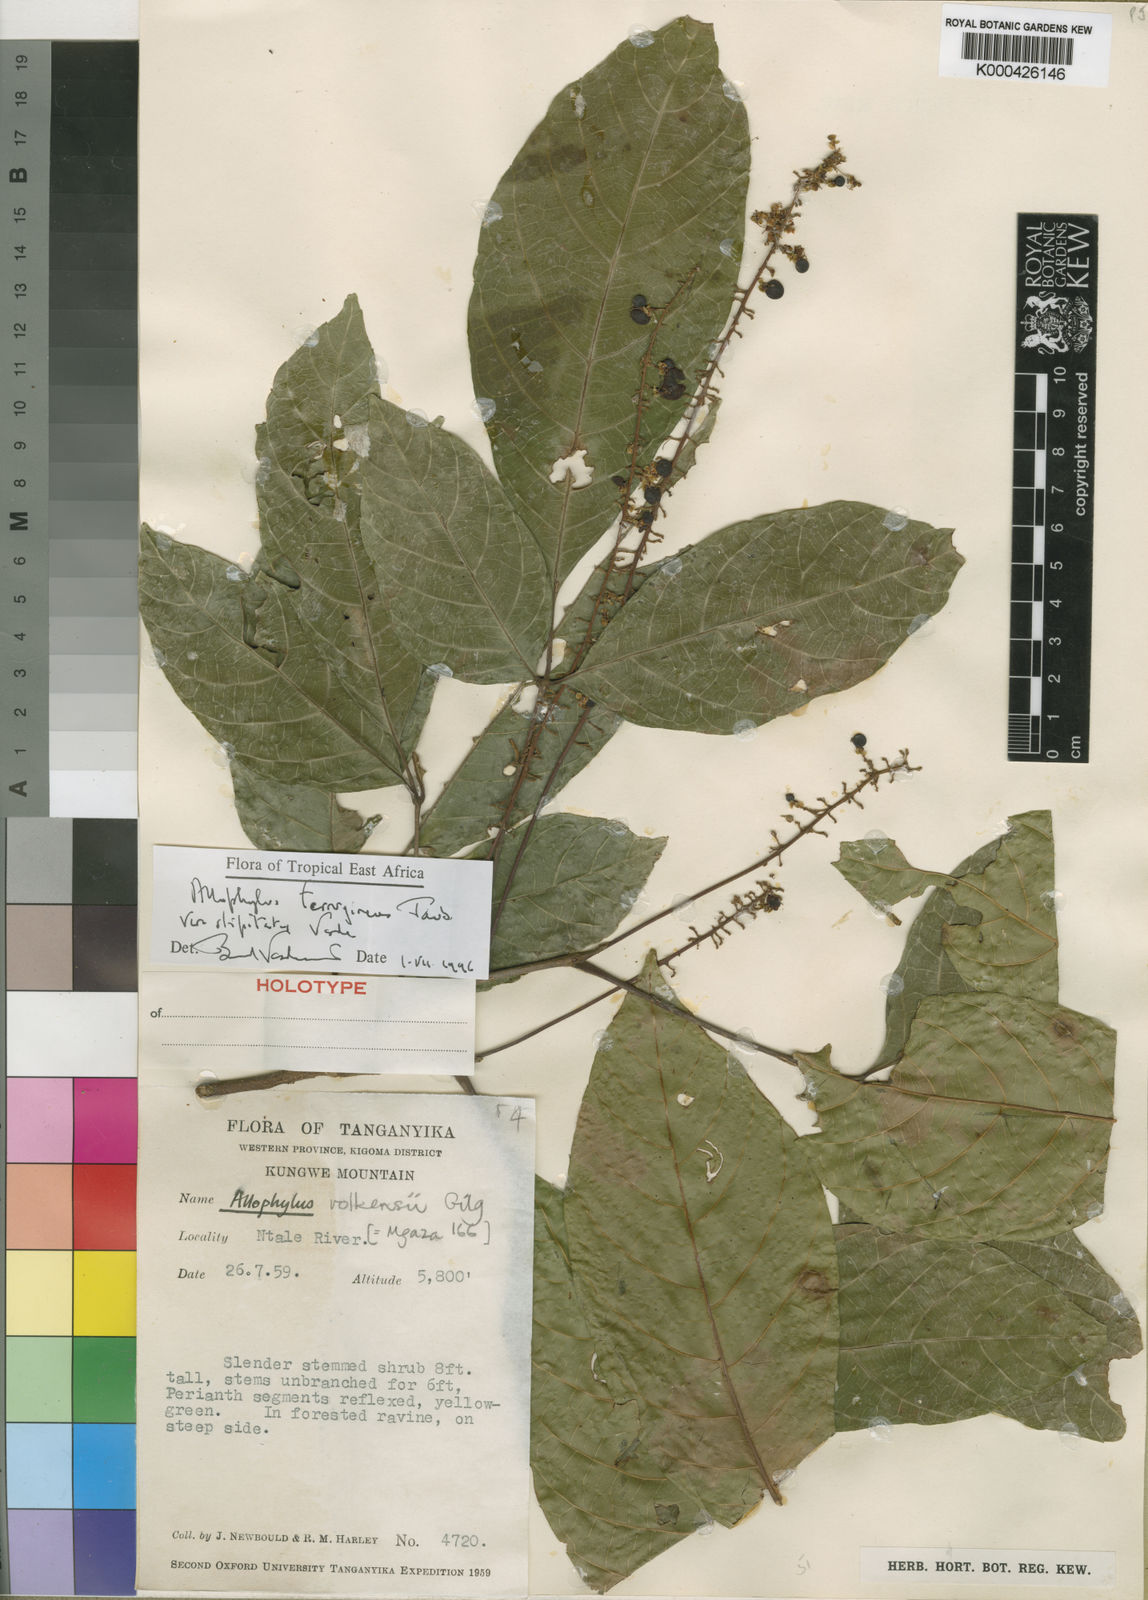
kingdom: Plantae
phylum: Tracheophyta
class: Magnoliopsida
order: Sapindales
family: Sapindaceae
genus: Allophylus
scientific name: Allophylus ferrugineus
